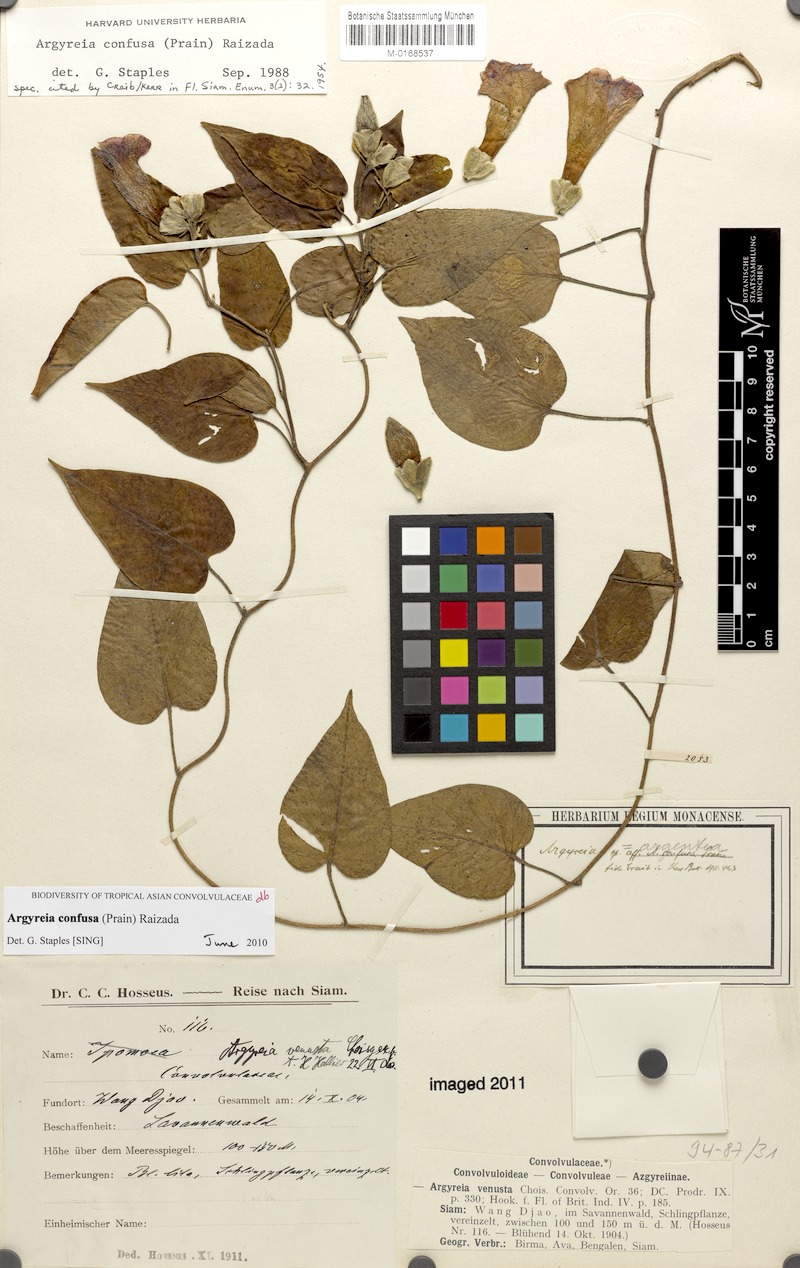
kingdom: Plantae
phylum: Tracheophyta
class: Magnoliopsida
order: Solanales
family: Convolvulaceae
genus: Argyreia
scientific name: Argyreia confusa
